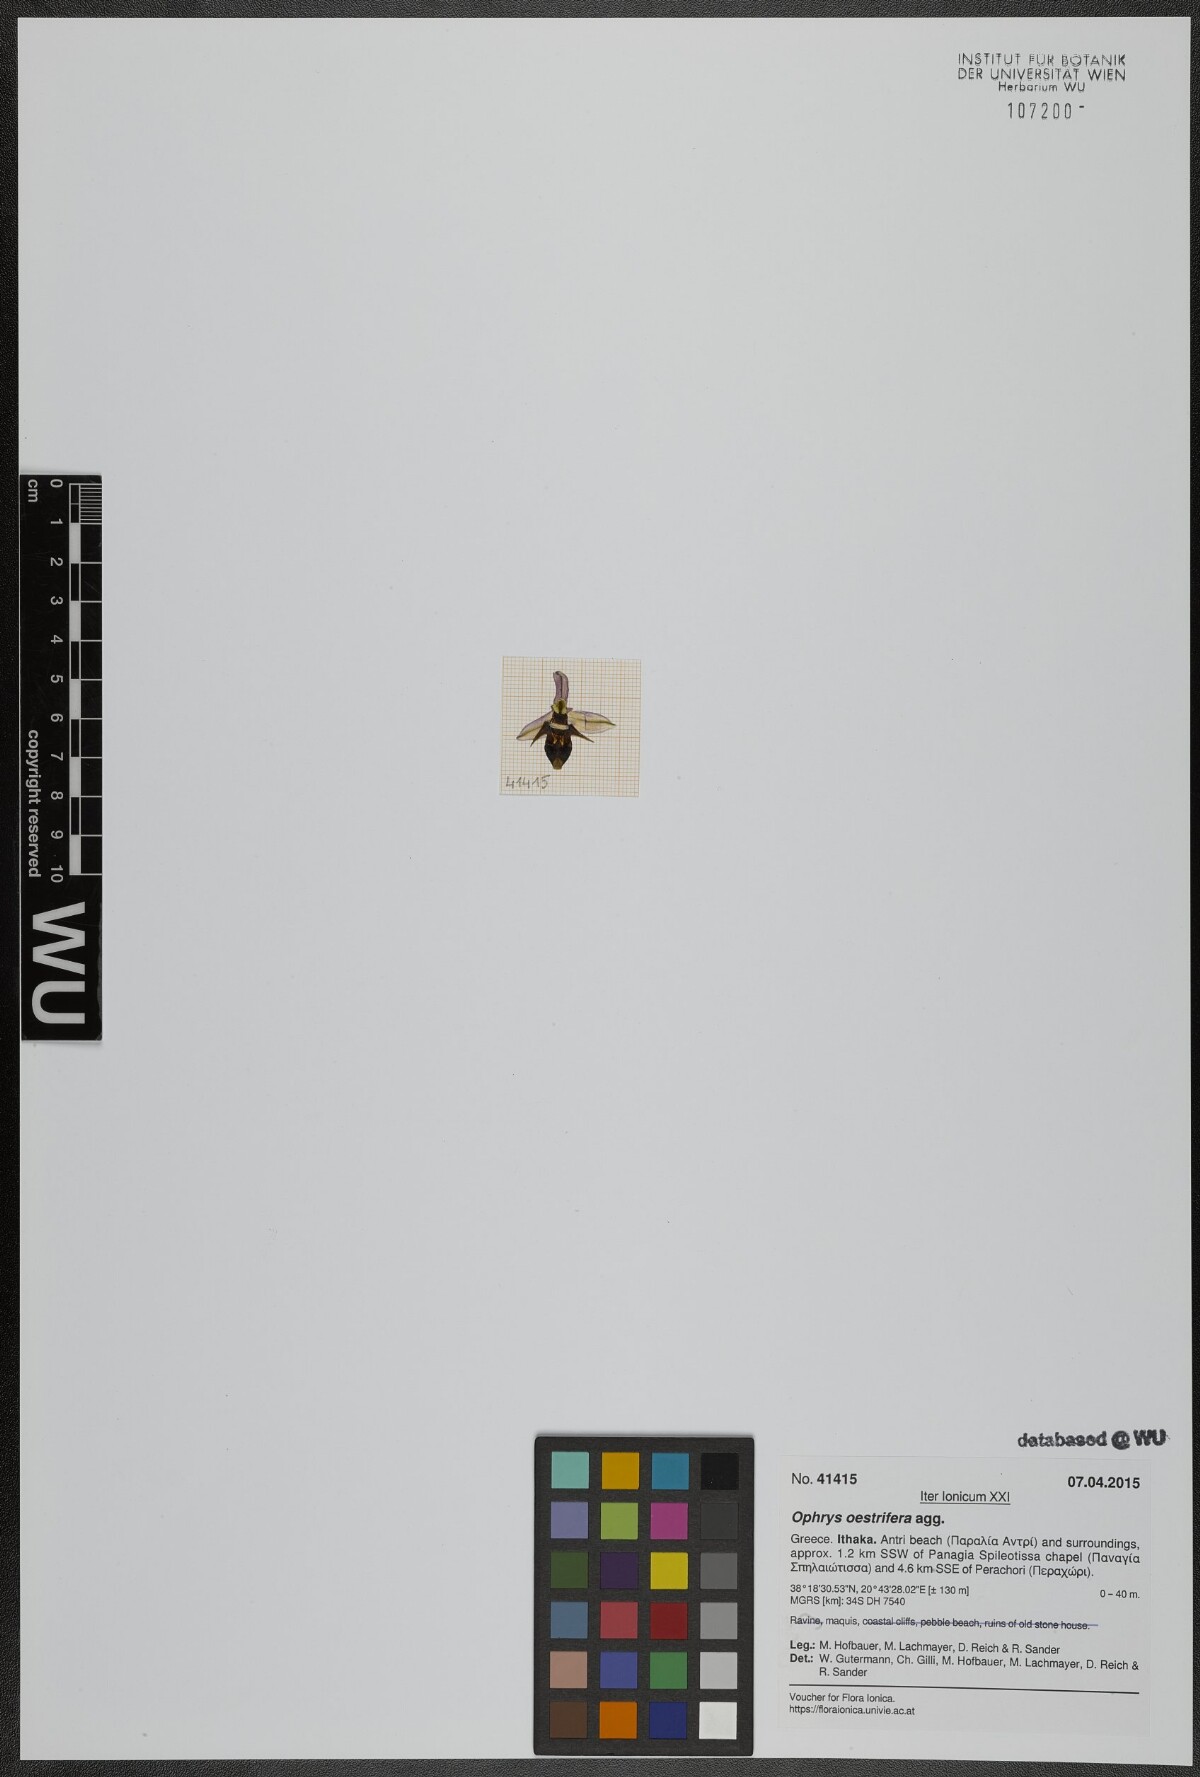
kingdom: Plantae
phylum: Tracheophyta
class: Liliopsida
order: Asparagales
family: Orchidaceae
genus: Ophrys
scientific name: Ophrys scolopax
